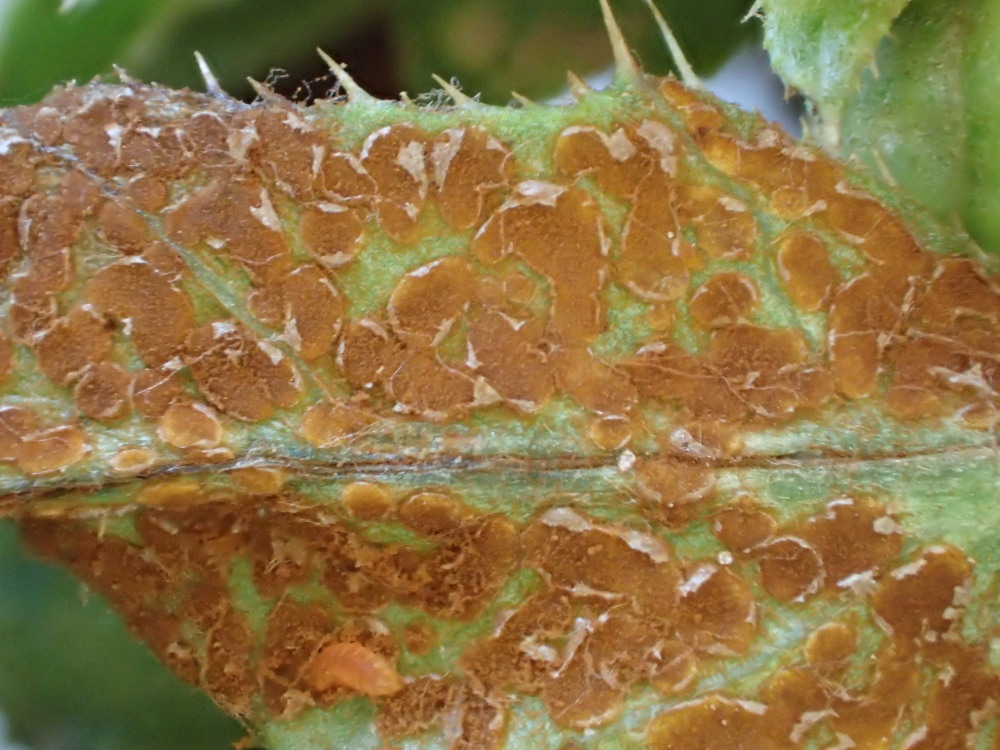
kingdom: Fungi
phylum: Basidiomycota
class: Pucciniomycetes
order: Pucciniales
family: Pucciniaceae
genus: Puccinia
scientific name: Puccinia suaveolens
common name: tidsel-tvecellerust
